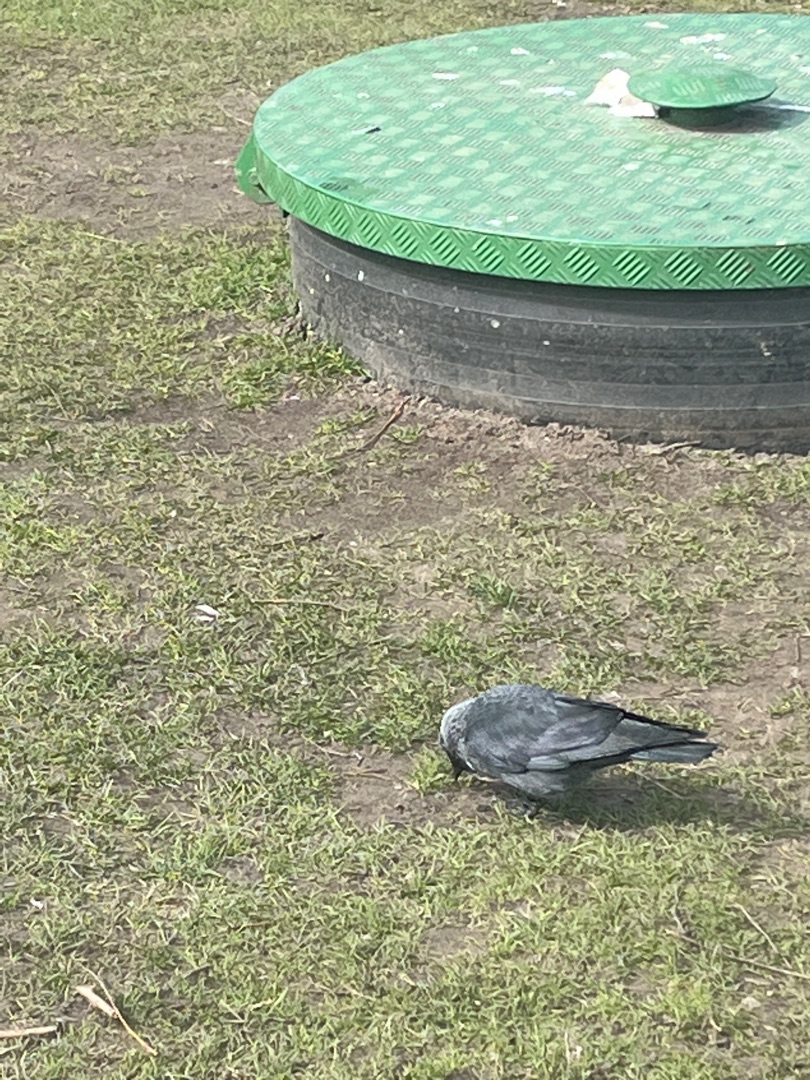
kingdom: Animalia
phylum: Chordata
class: Aves
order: Passeriformes
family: Corvidae
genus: Coloeus
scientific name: Coloeus monedula
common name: Allike
